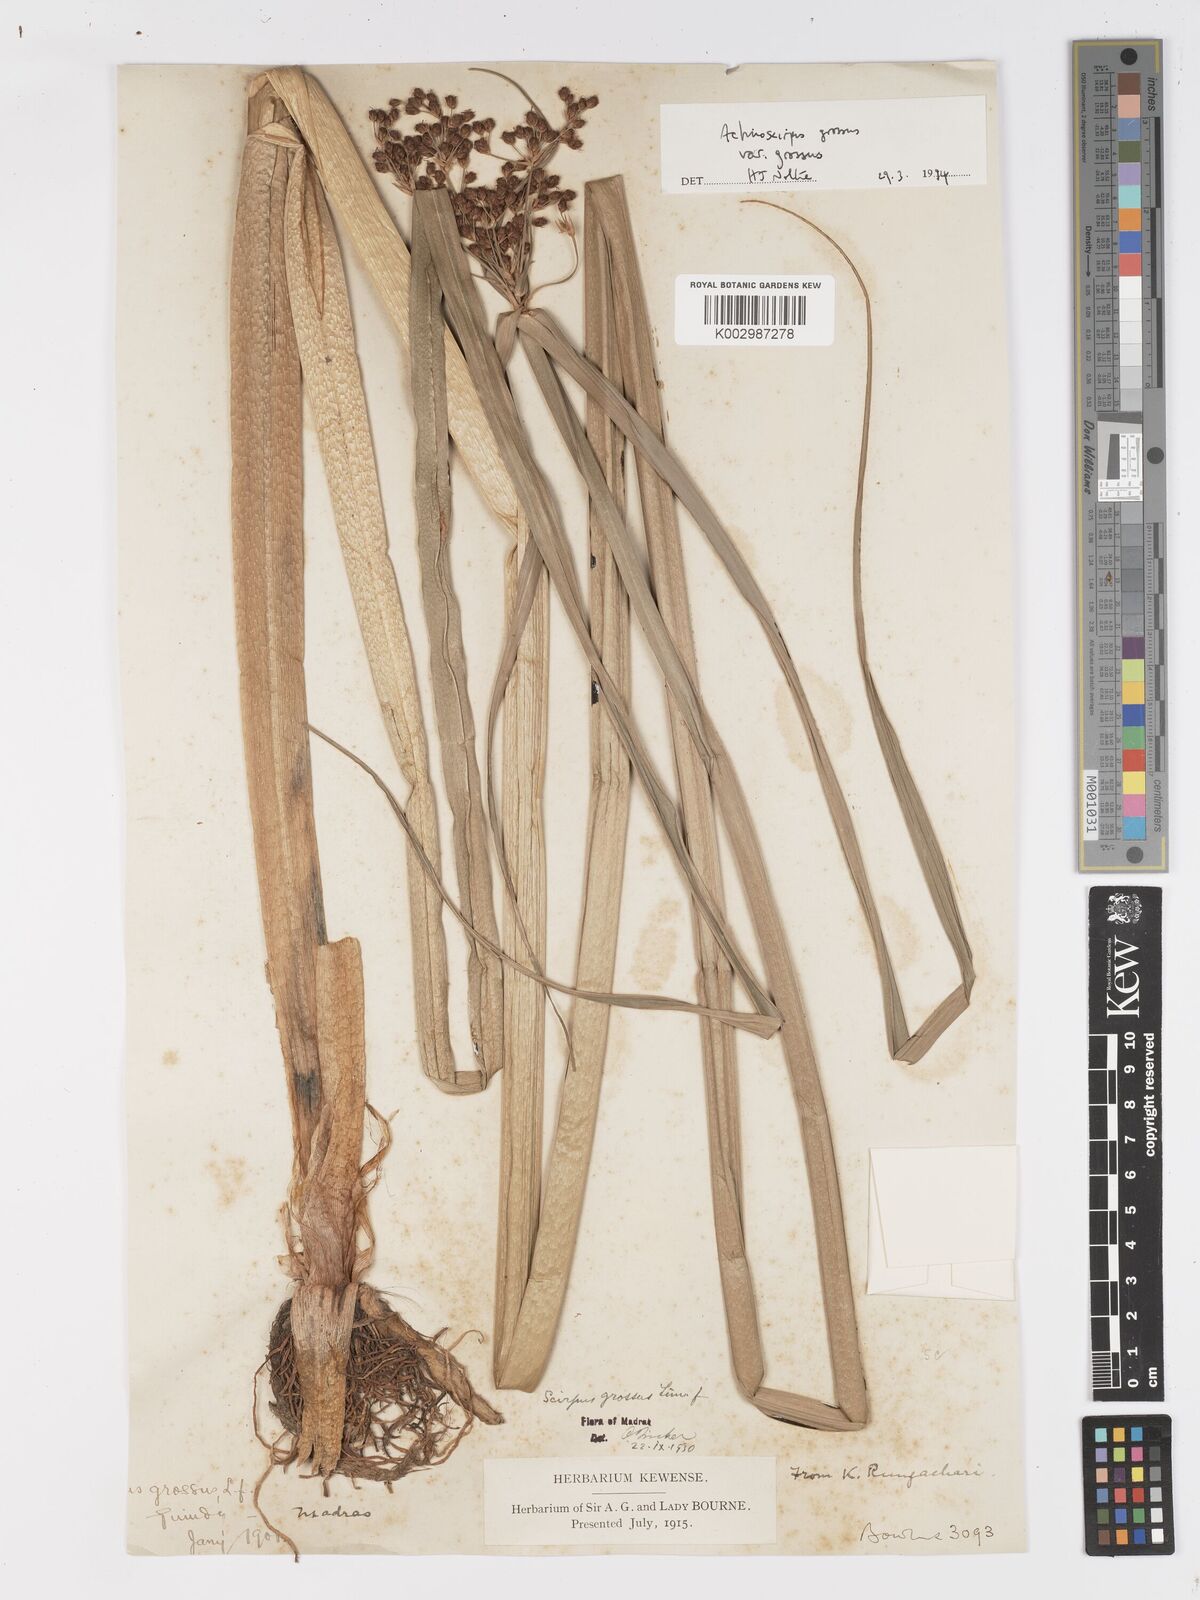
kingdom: Plantae
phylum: Tracheophyta
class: Liliopsida
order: Poales
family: Cyperaceae
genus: Actinoscirpus
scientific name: Actinoscirpus grossus
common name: Giant bur rush
